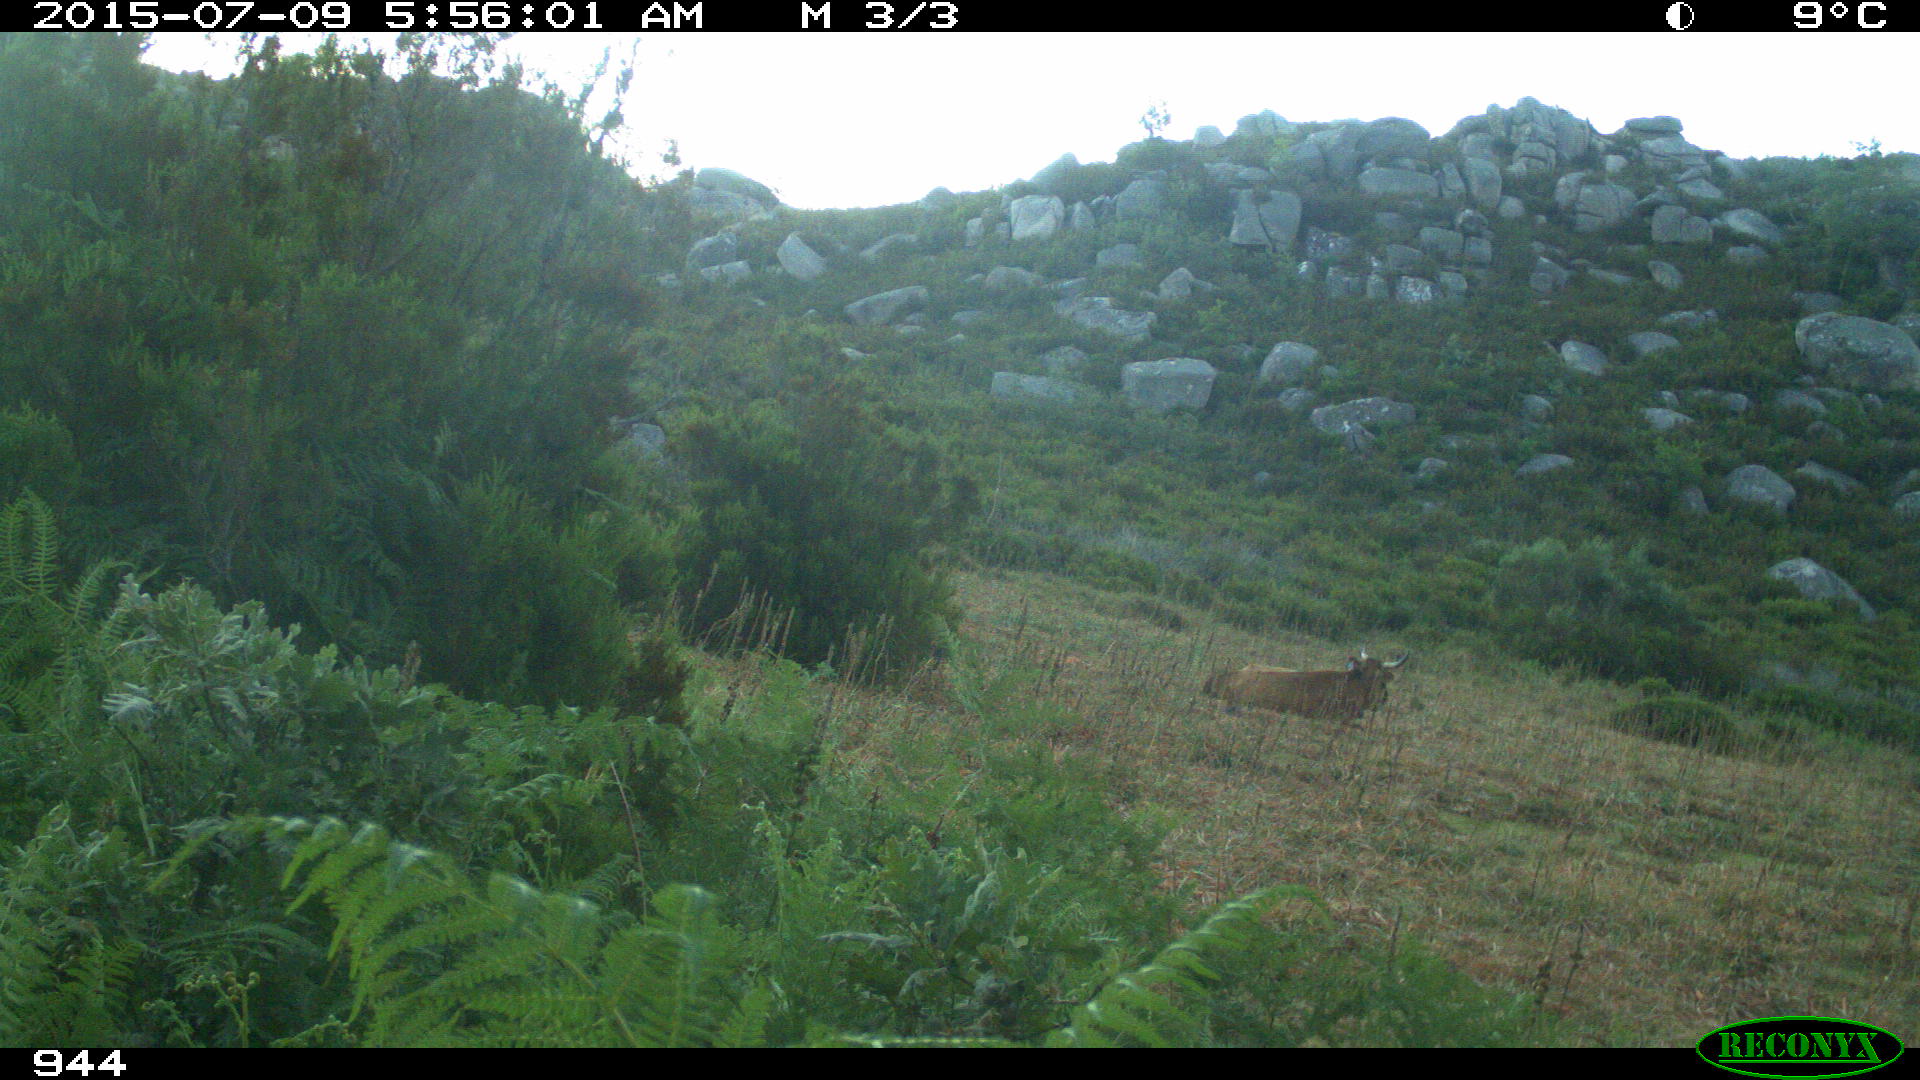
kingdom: Animalia
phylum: Chordata
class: Mammalia
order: Artiodactyla
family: Bovidae
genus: Bos
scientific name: Bos taurus
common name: Domesticated cattle
